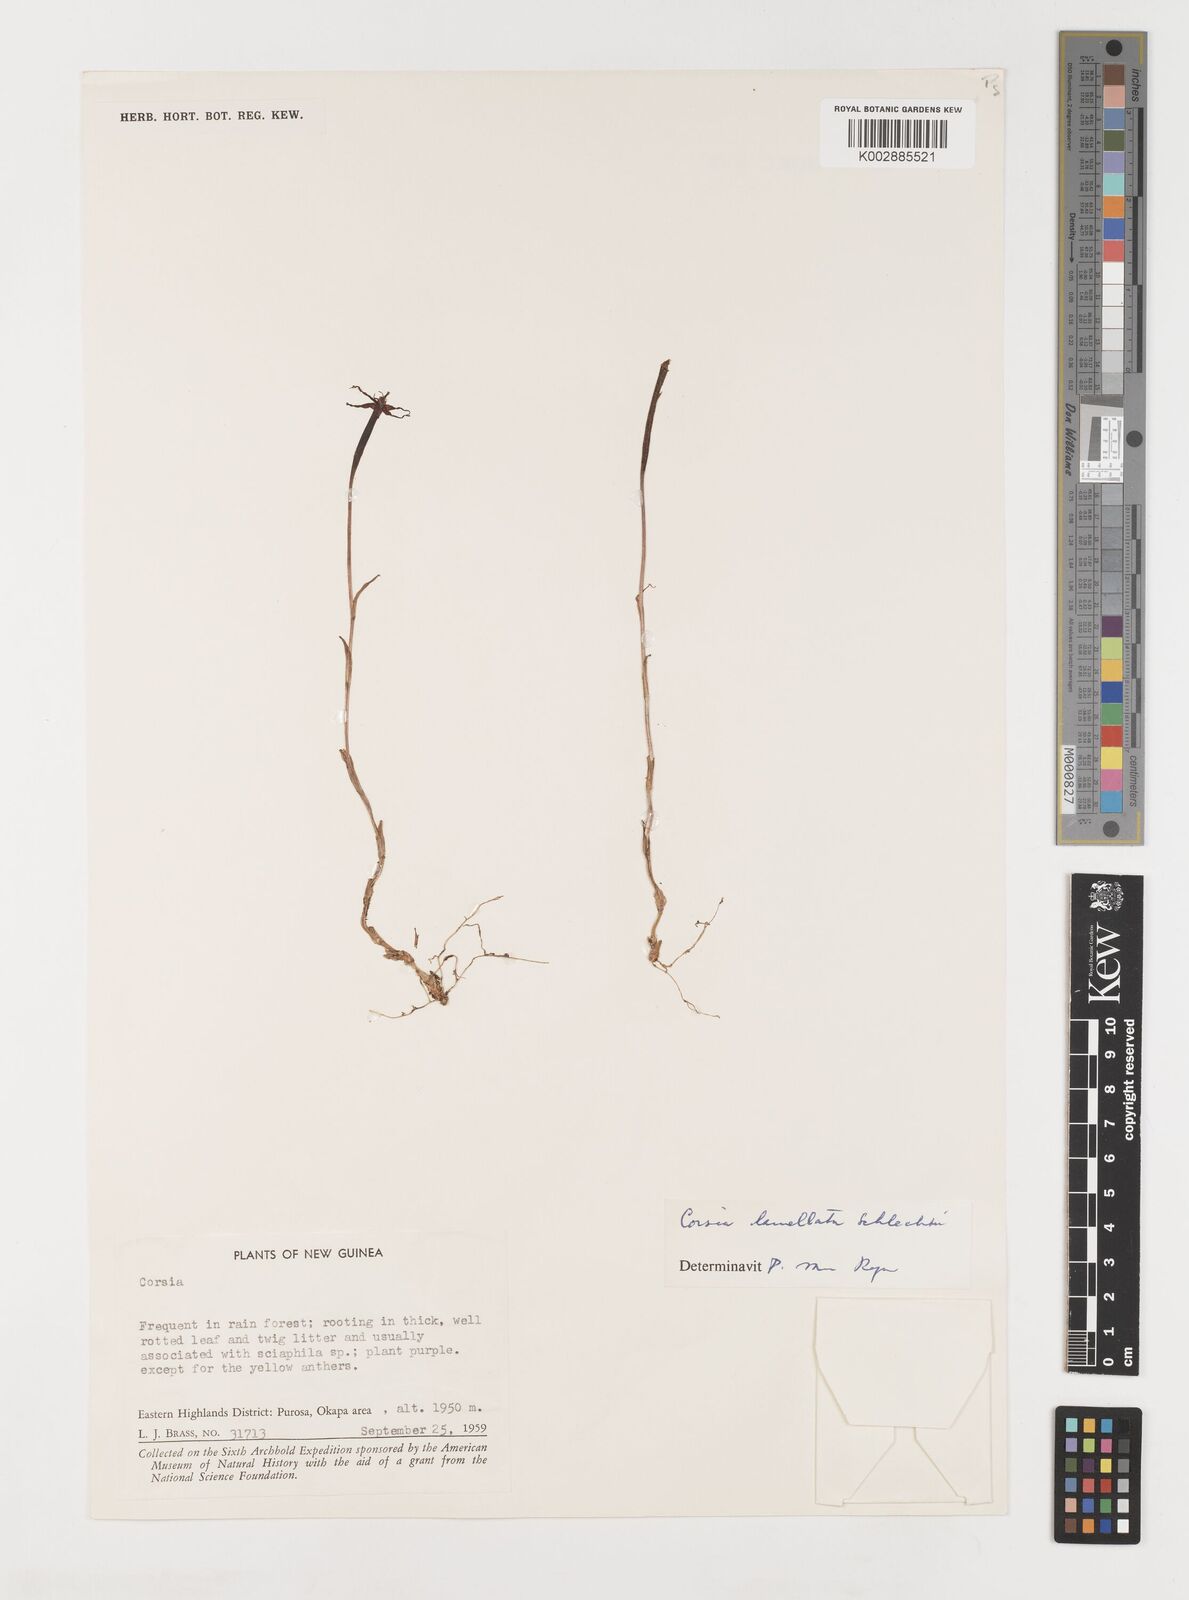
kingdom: Plantae
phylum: Tracheophyta
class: Liliopsida
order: Liliales
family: Corsiaceae
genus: Corsia
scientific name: Corsia lamellata
